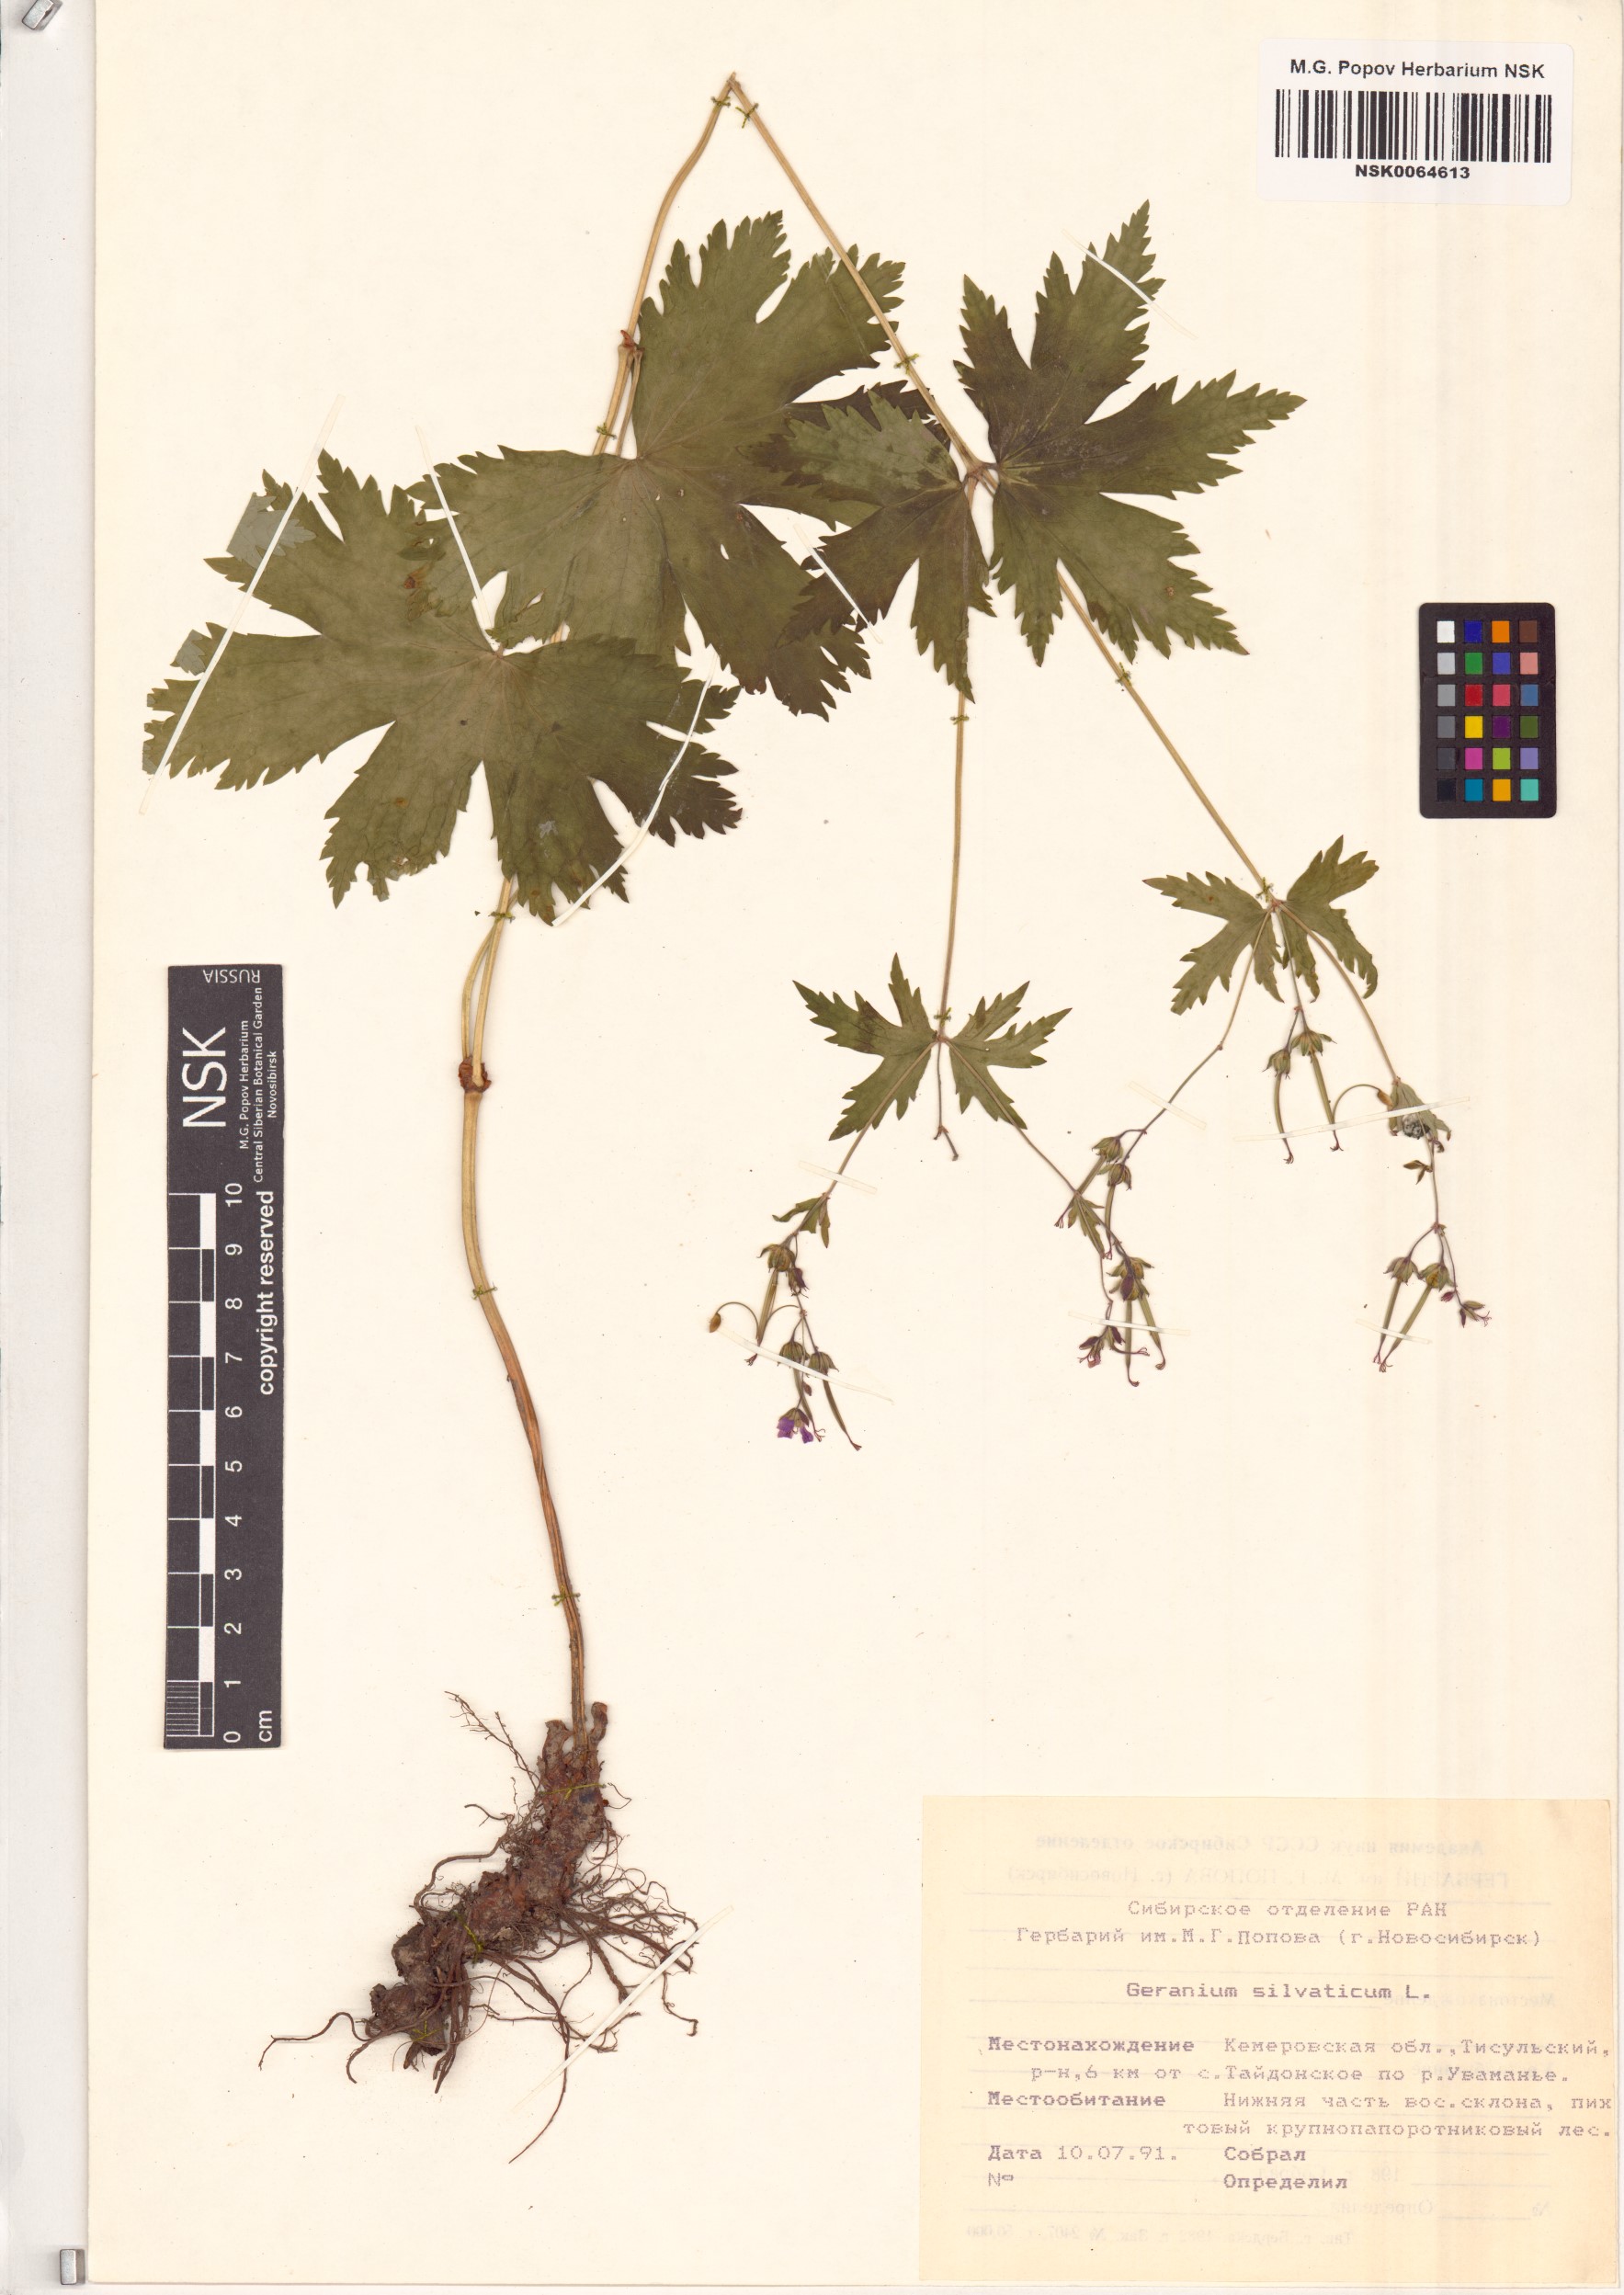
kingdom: Plantae
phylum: Tracheophyta
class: Magnoliopsida
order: Geraniales
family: Geraniaceae
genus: Geranium
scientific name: Geranium sylvaticum
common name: Wood crane's-bill
